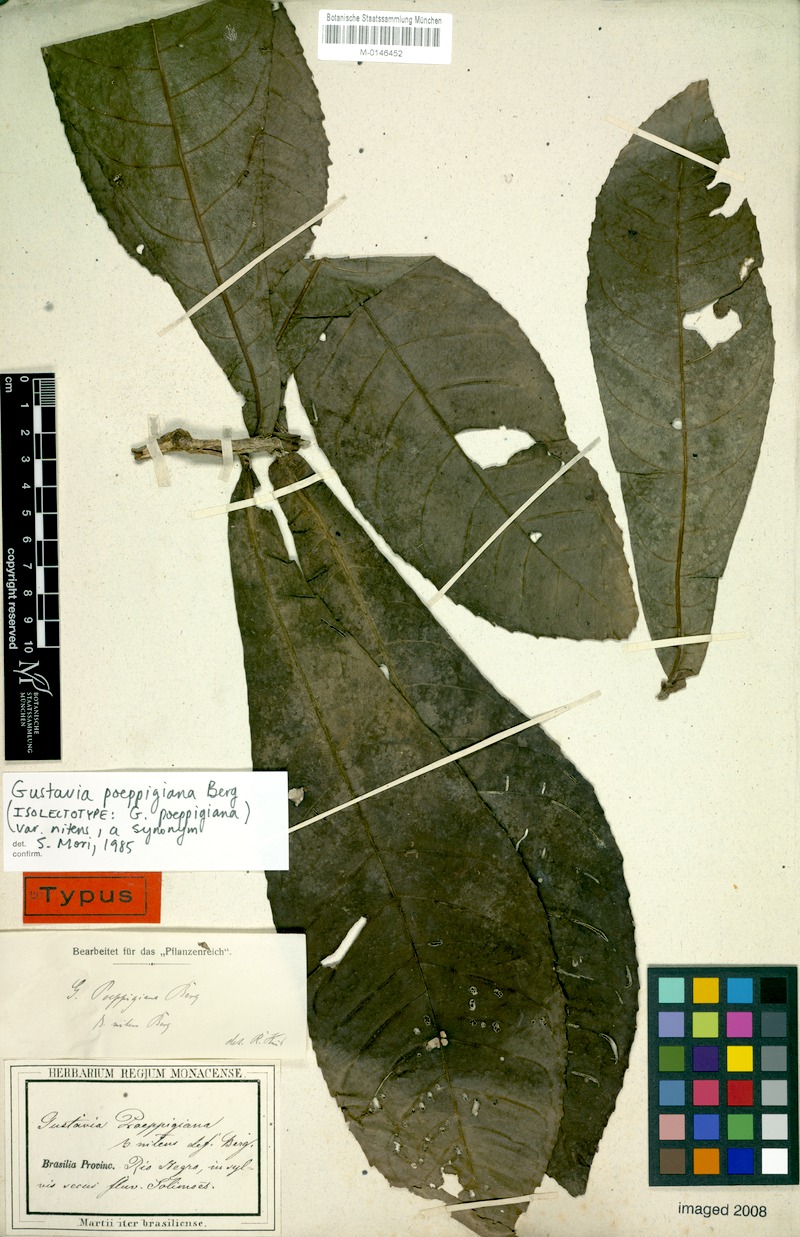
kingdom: Plantae
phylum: Tracheophyta
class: Magnoliopsida
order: Ericales
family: Lecythidaceae
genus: Gustavia
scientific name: Gustavia poeppigiana
